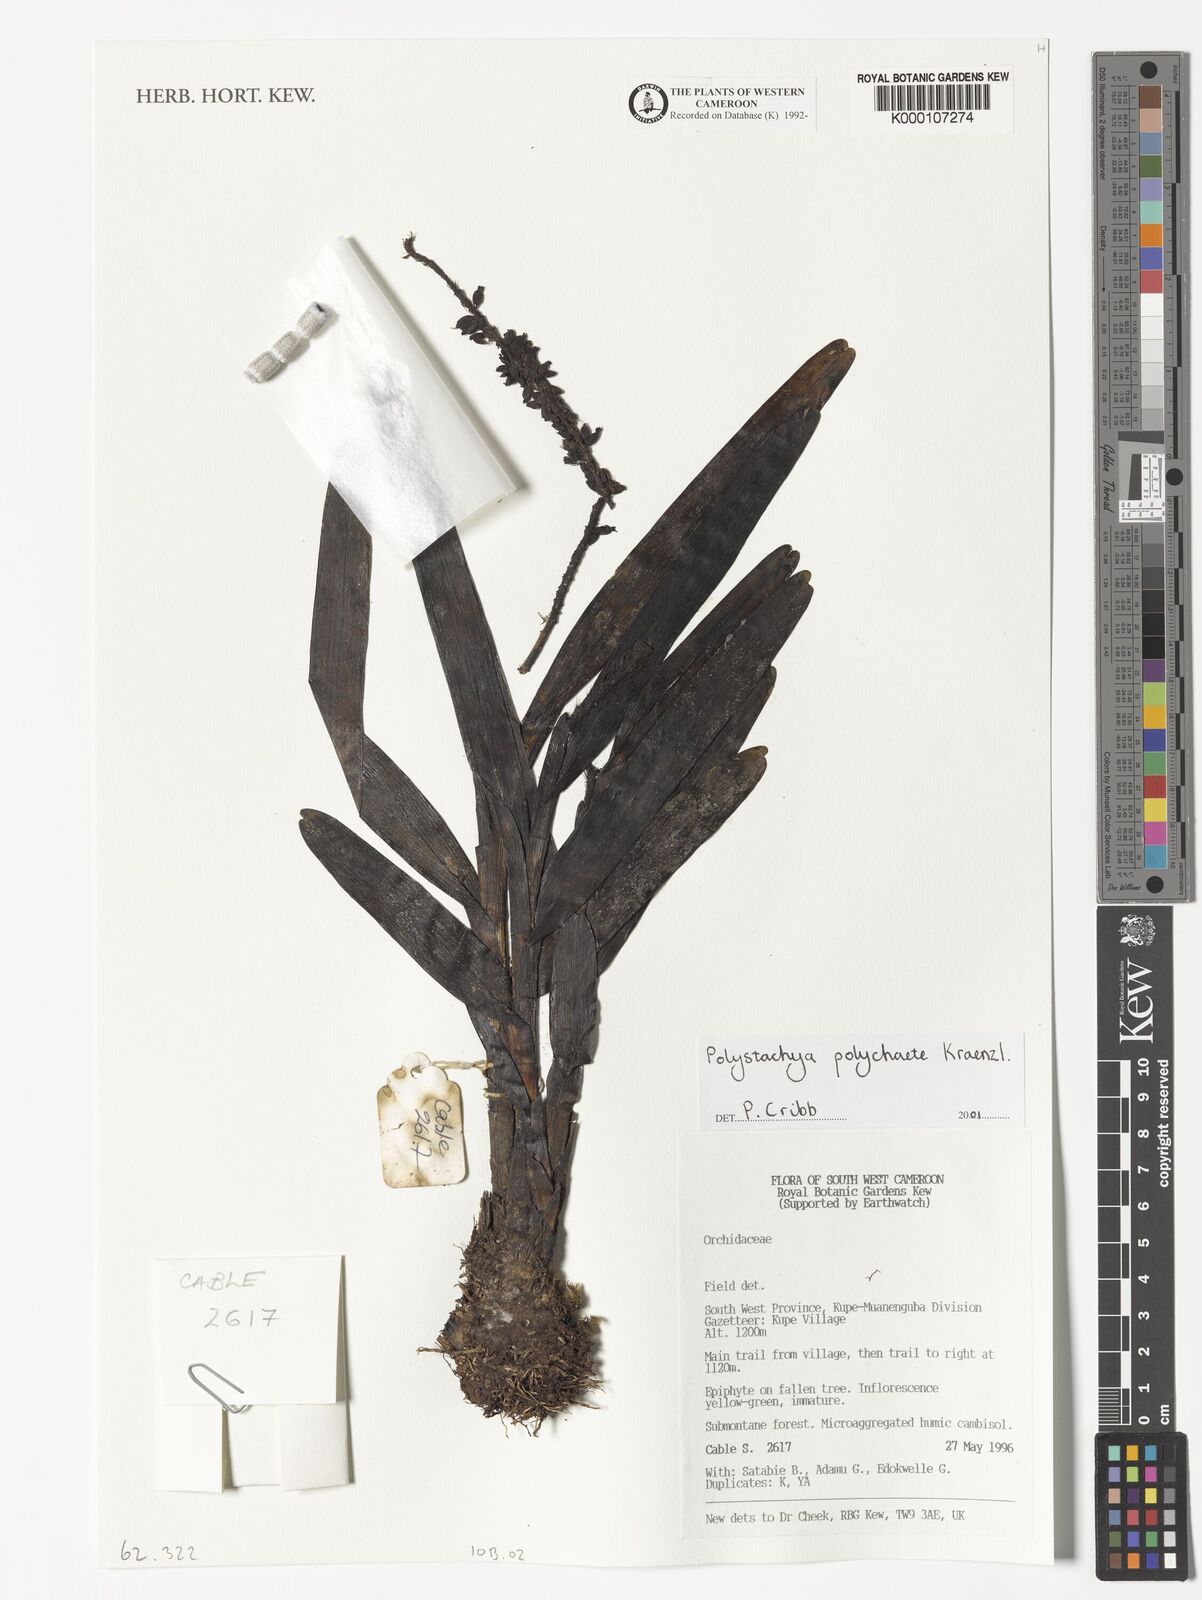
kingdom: Plantae
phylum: Tracheophyta
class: Liliopsida
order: Asparagales
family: Orchidaceae
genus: Polystachya
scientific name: Polystachya polychaete
